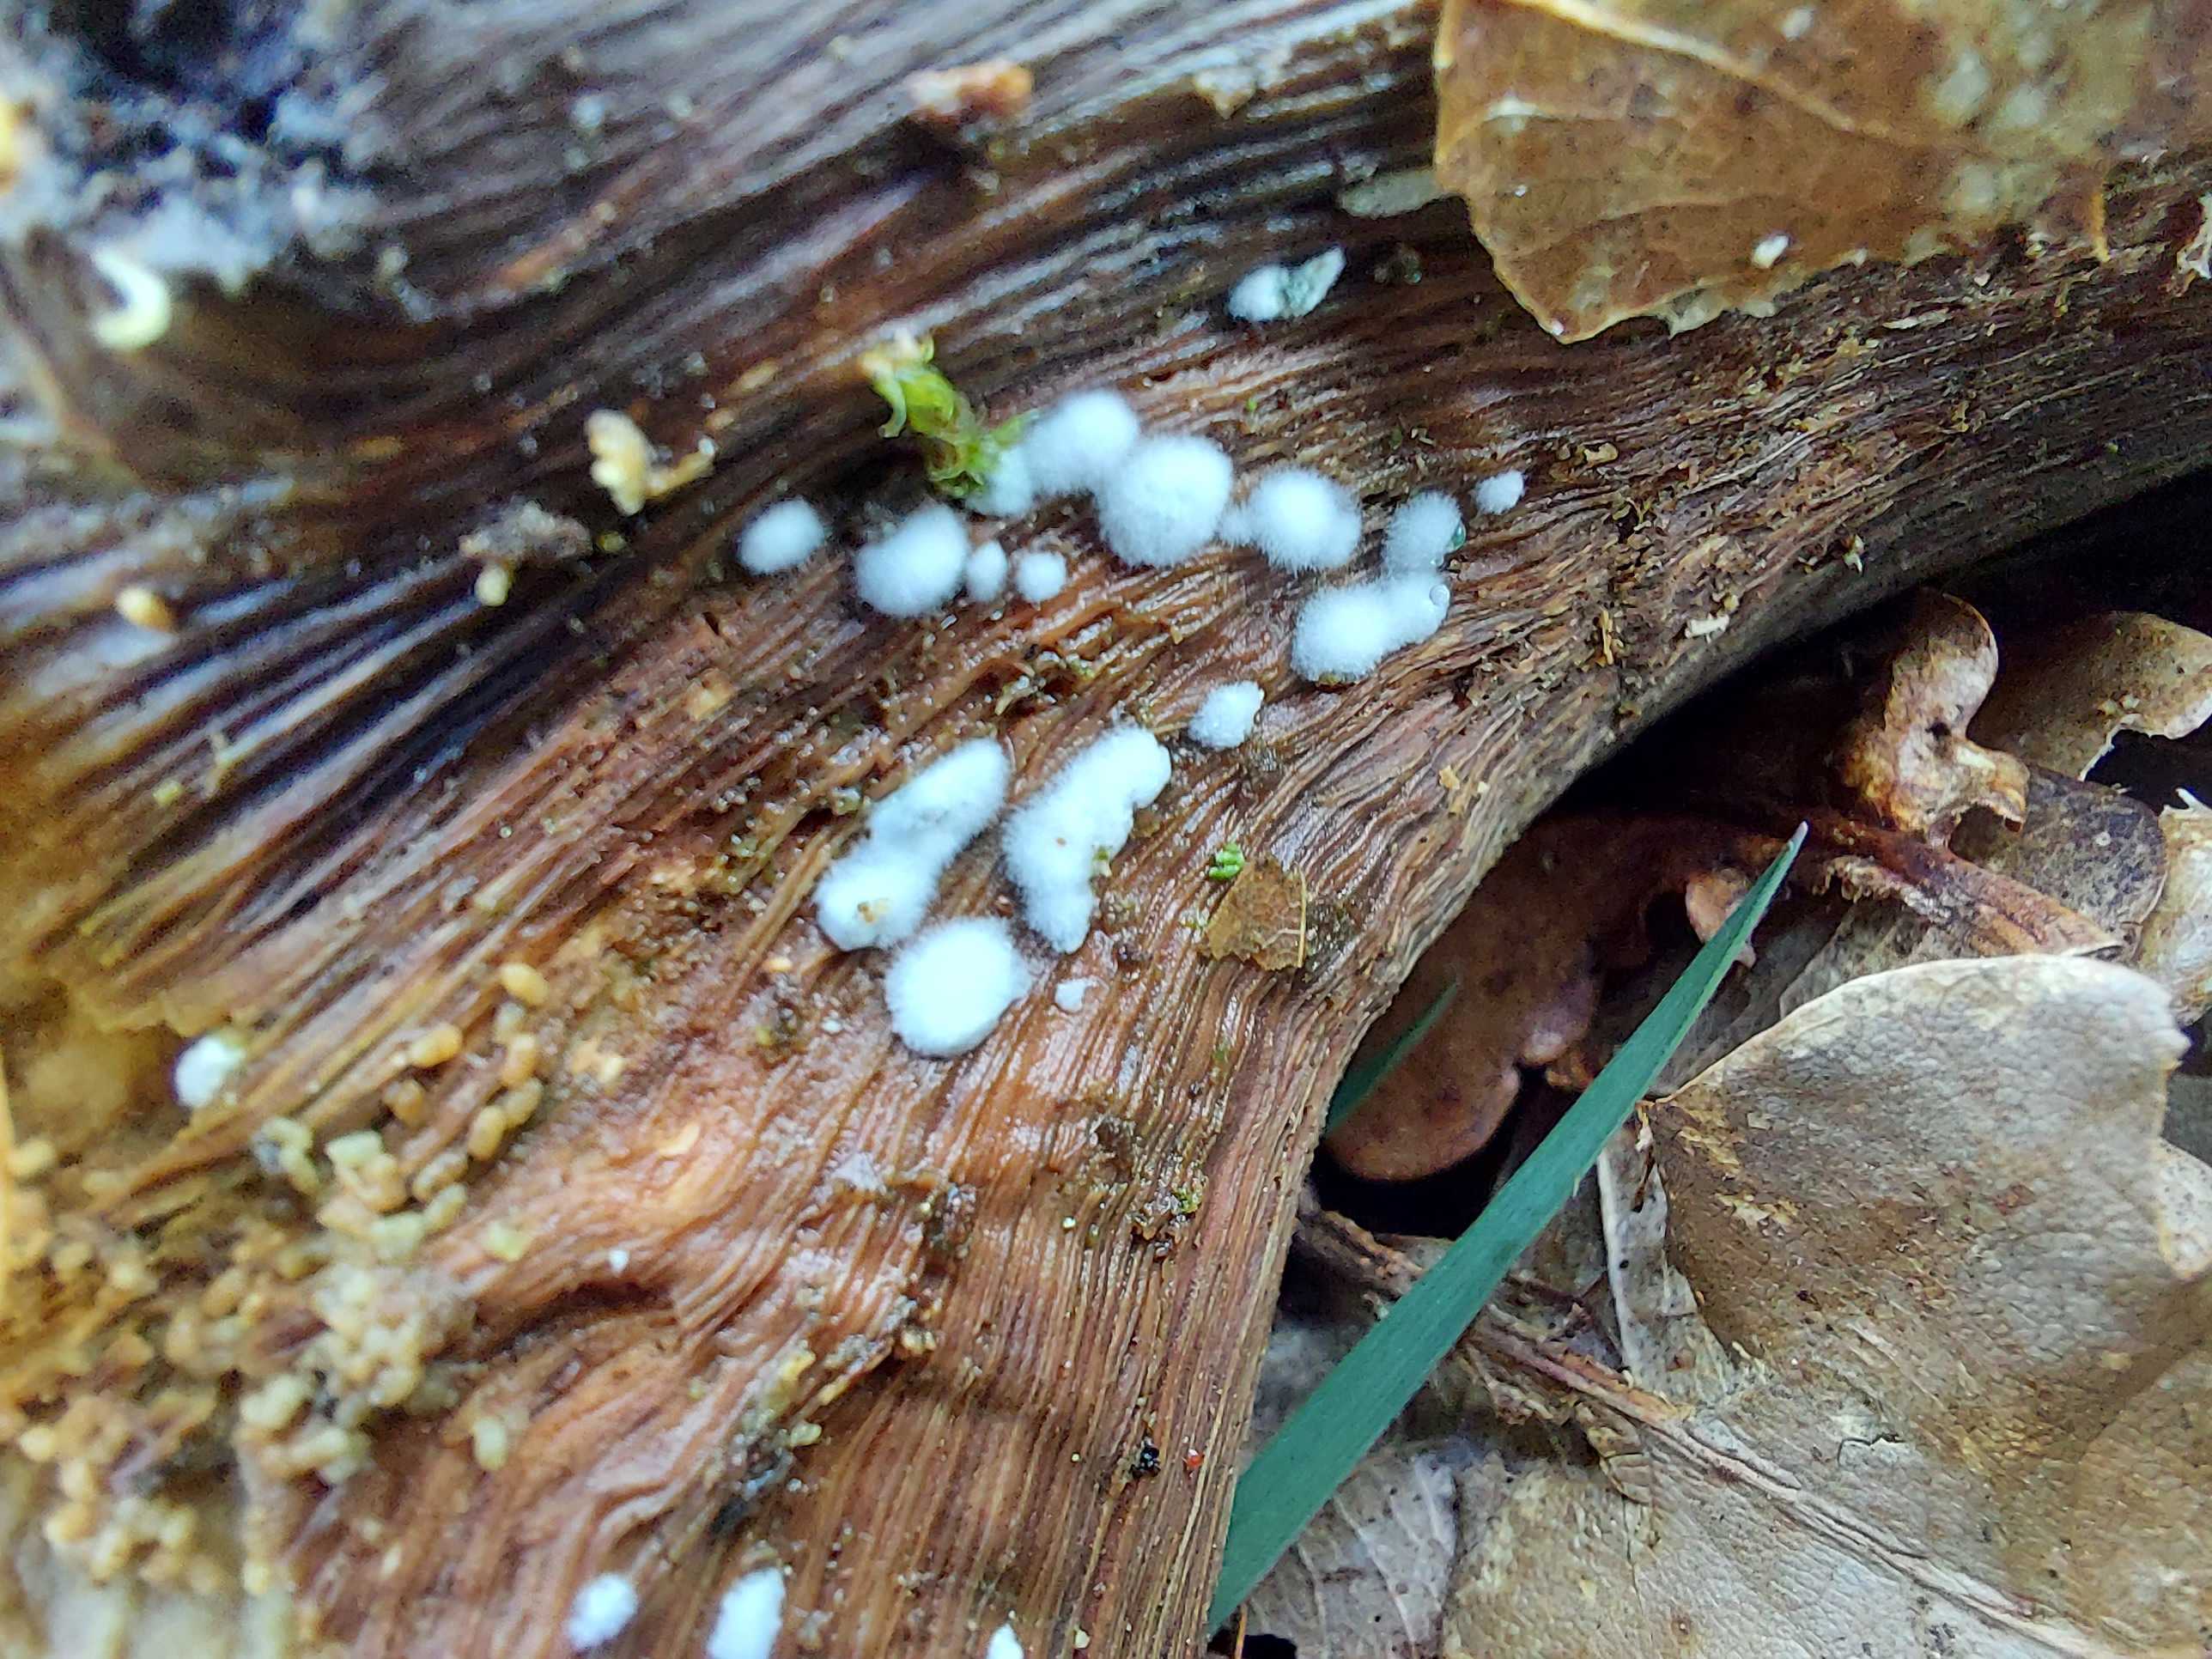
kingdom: Fungi
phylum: Ascomycota
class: Sordariomycetes
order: Hypocreales
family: Hypocreaceae
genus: Trichoderma
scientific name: Trichoderma
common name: kødkerne
